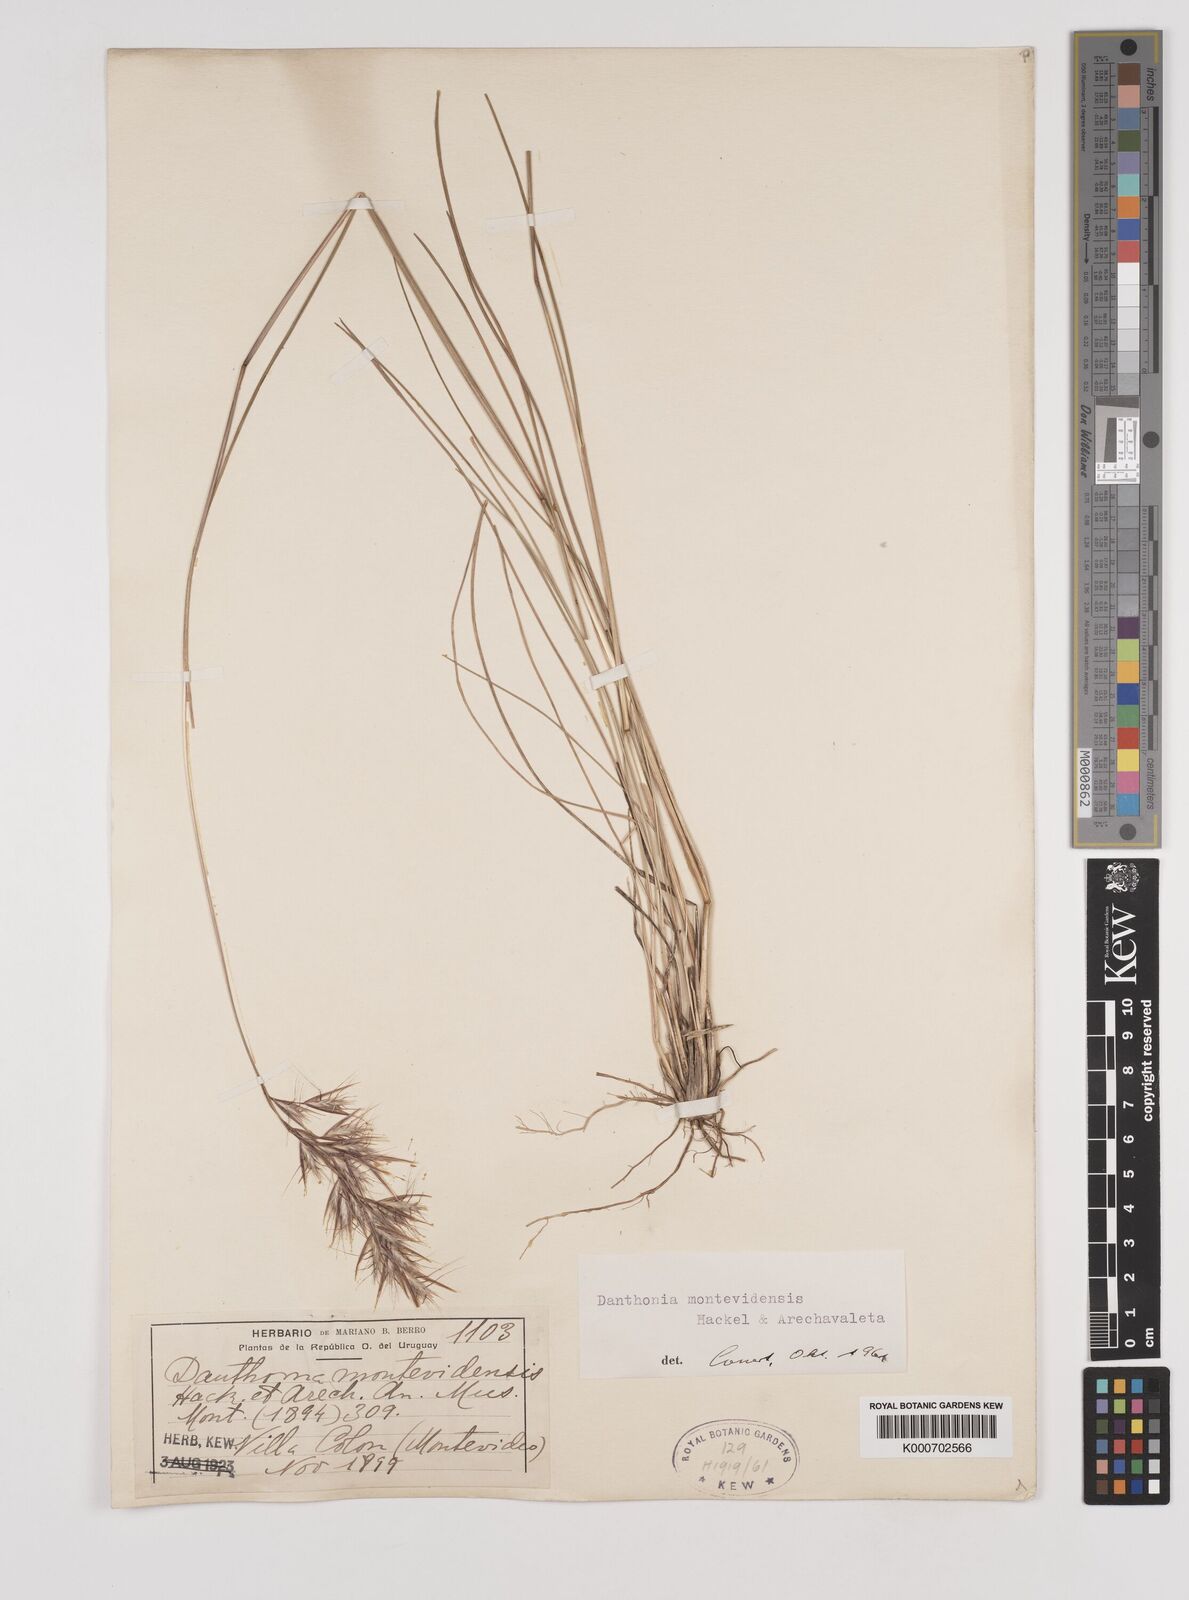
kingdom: Plantae
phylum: Tracheophyta
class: Liliopsida
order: Poales
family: Poaceae
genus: Danthonia
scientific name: Danthonia montevidensis
